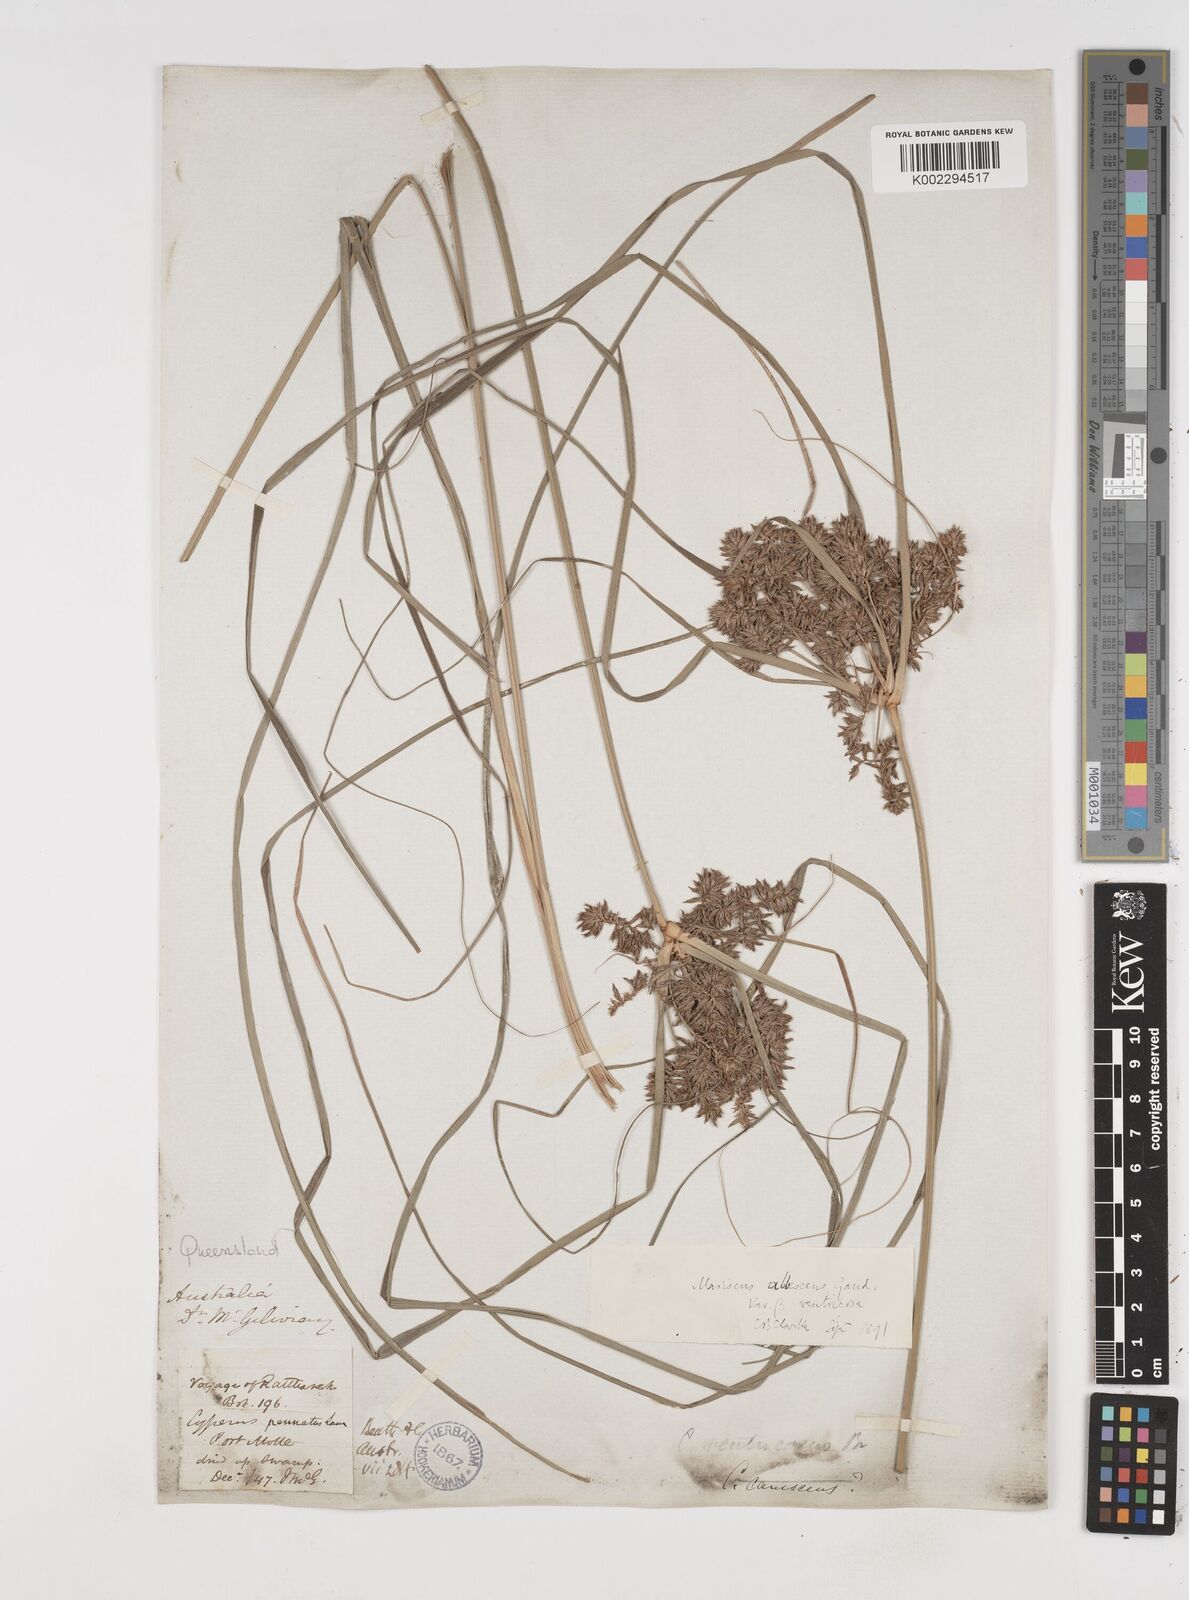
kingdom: Plantae
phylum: Tracheophyta
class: Liliopsida
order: Poales
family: Cyperaceae
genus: Cyperus
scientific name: Cyperus javanicus
